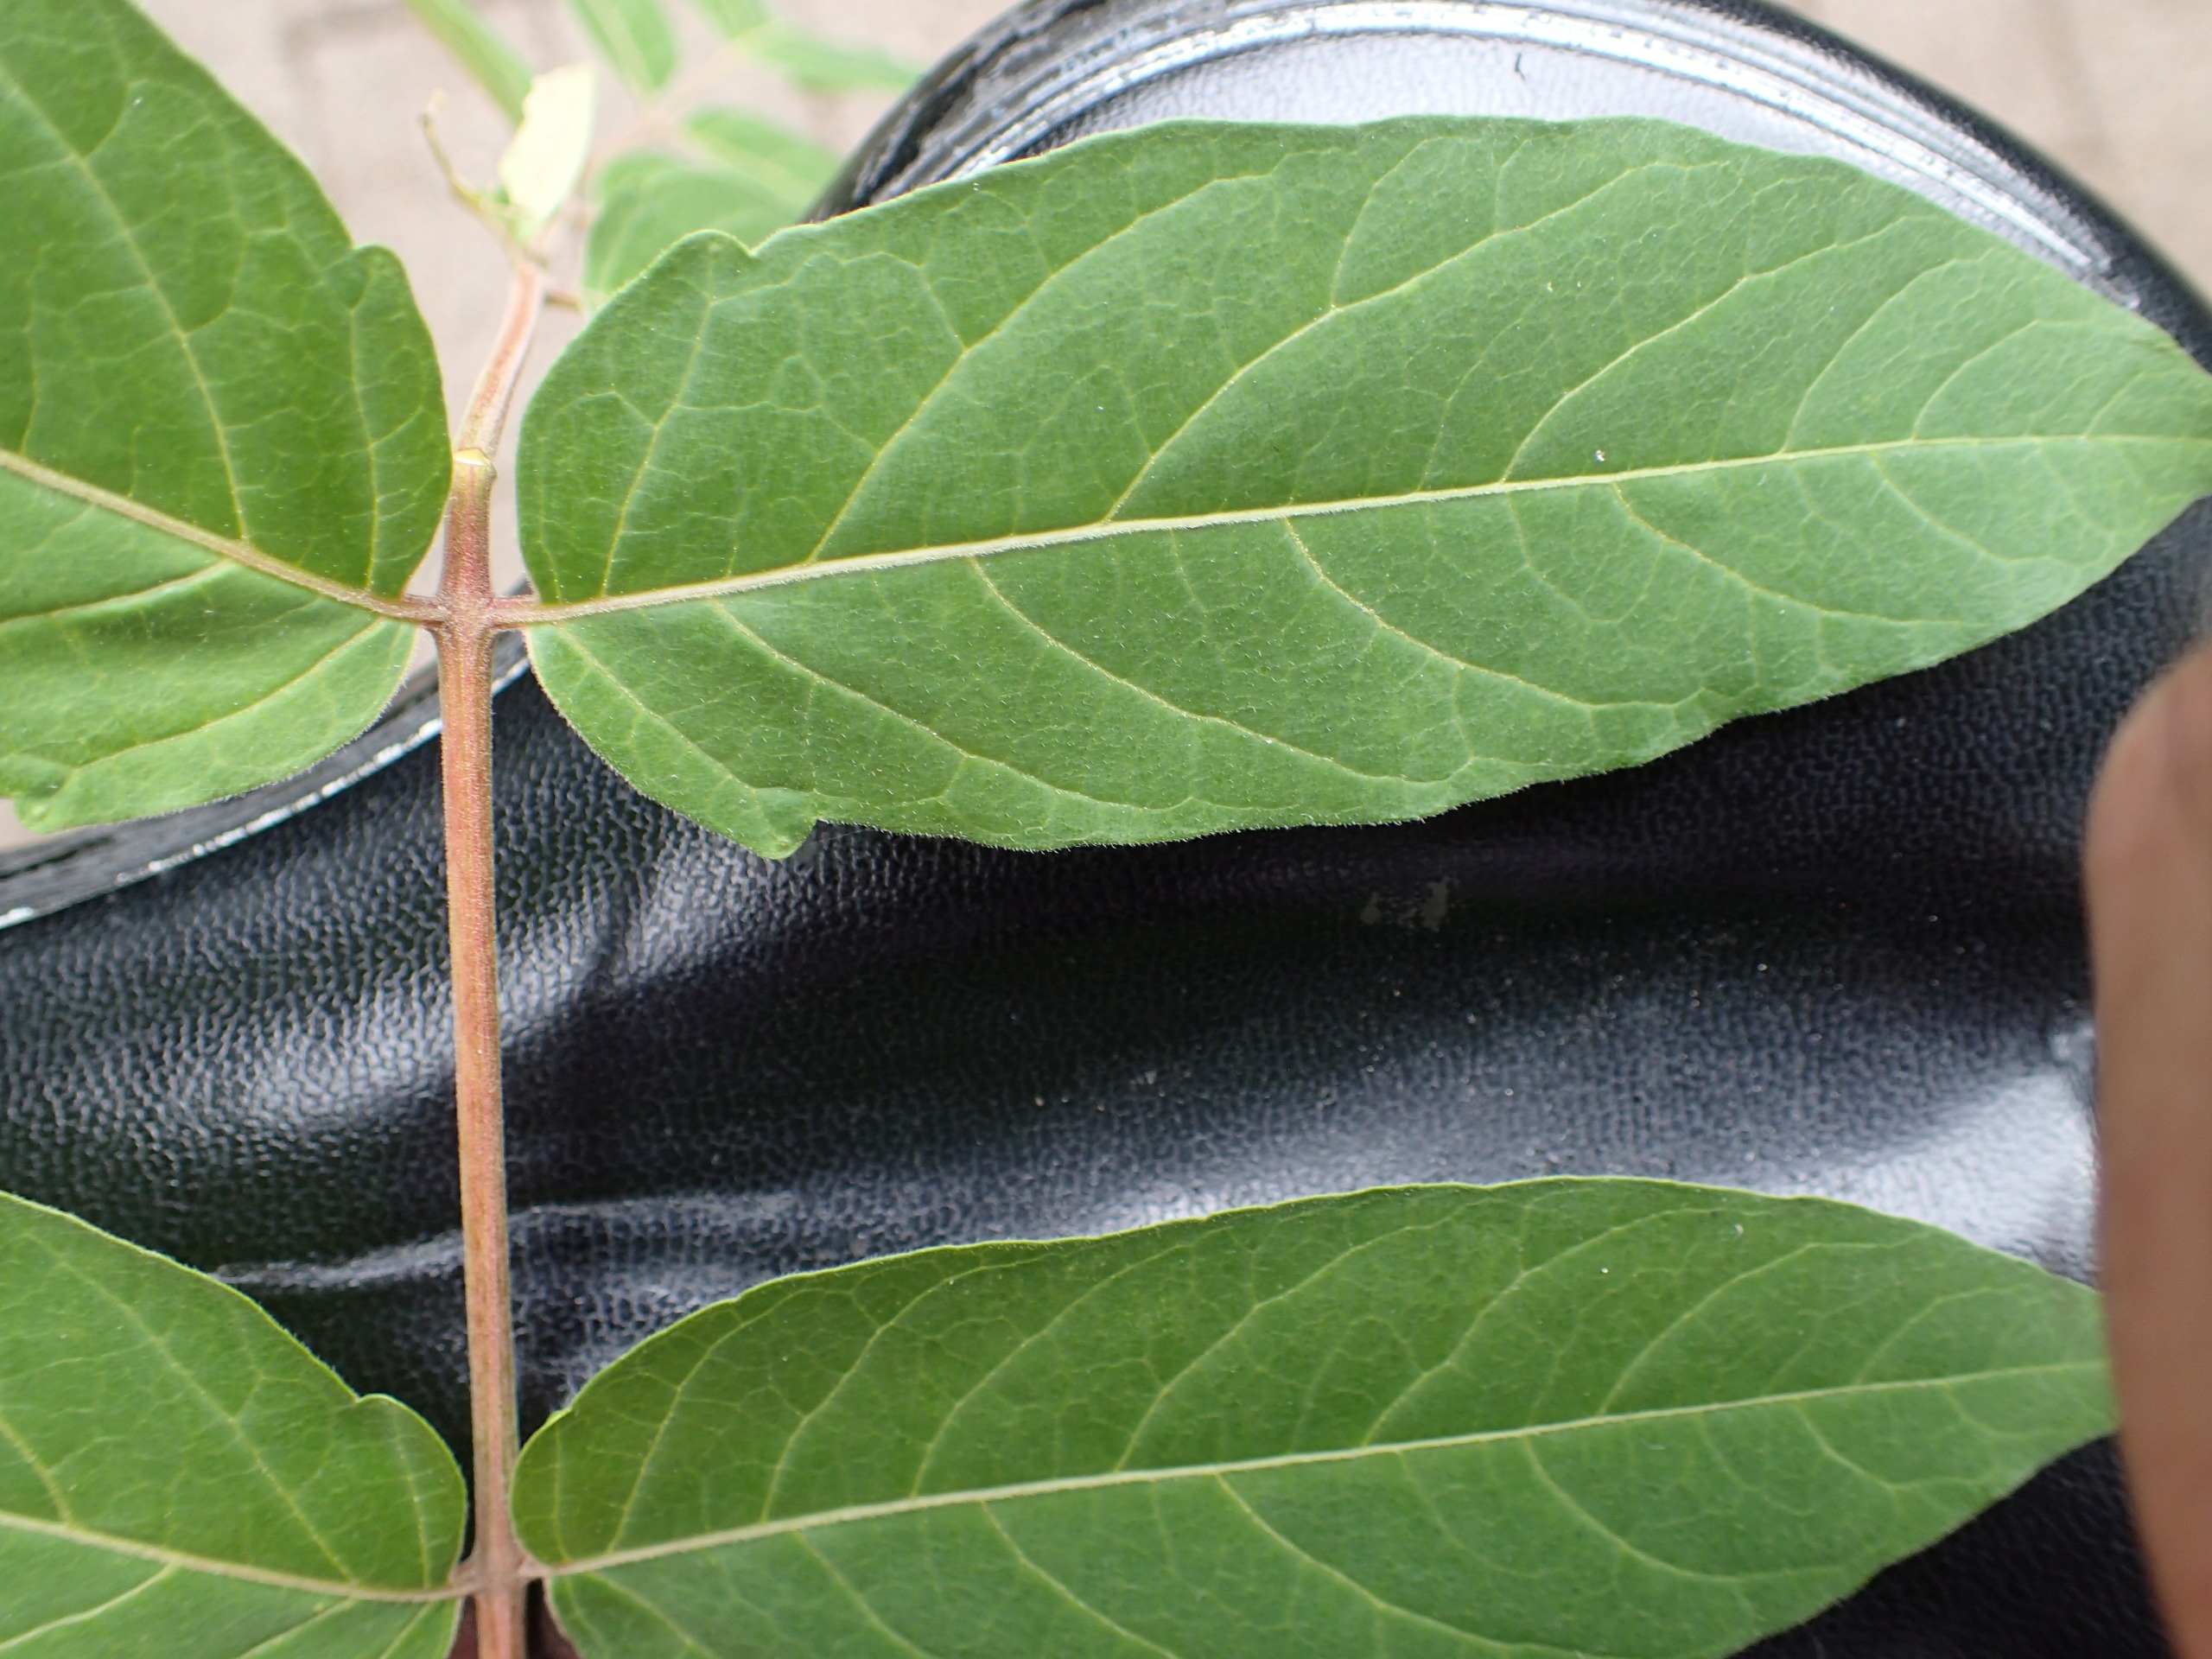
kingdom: Plantae
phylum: Tracheophyta
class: Magnoliopsida
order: Sapindales
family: Simaroubaceae
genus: Ailanthus
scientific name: Ailanthus altissima
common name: Skyrækker
